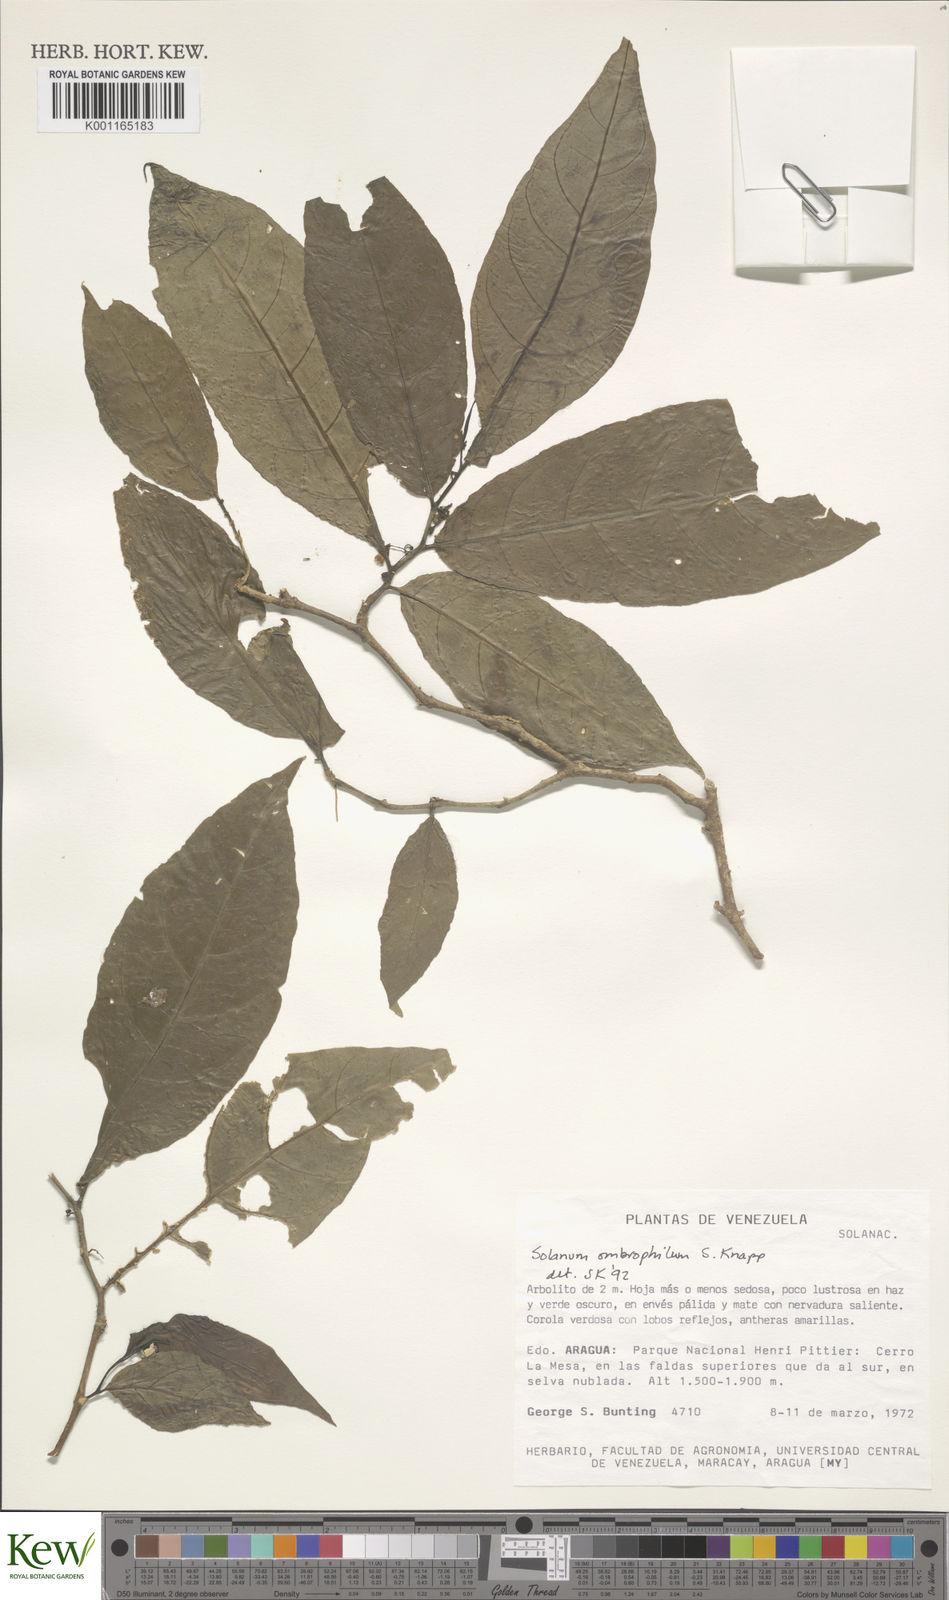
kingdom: Plantae
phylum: Tracheophyta
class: Magnoliopsida
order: Solanales
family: Solanaceae
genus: Solanum
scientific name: Solanum ombrophilum
